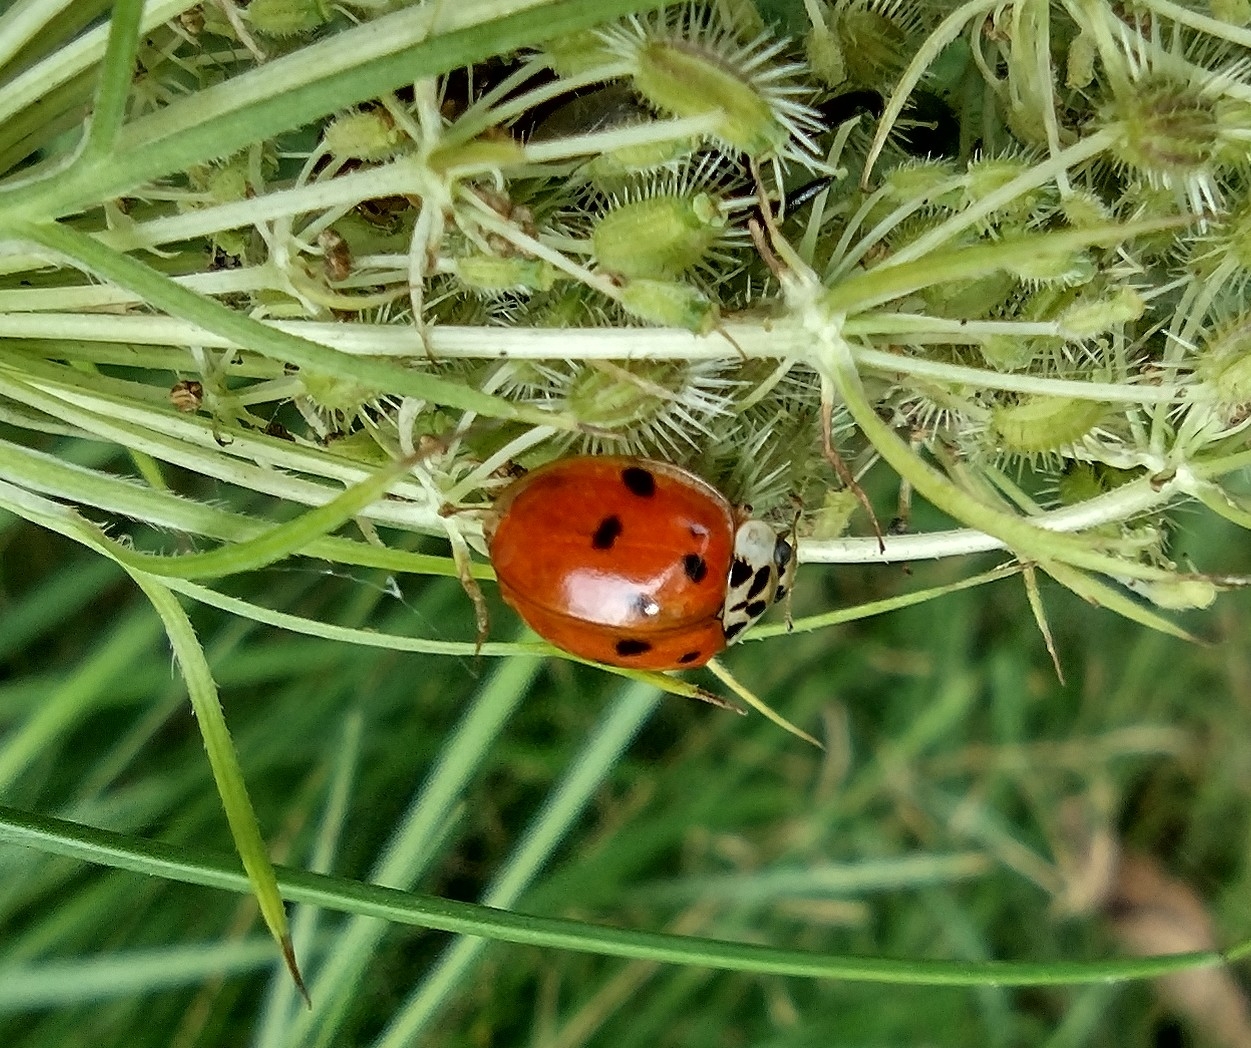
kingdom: Animalia
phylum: Arthropoda
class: Insecta
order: Coleoptera
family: Coccinellidae
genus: Harmonia
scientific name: Harmonia axyridis
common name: Harlekinmariehøne
